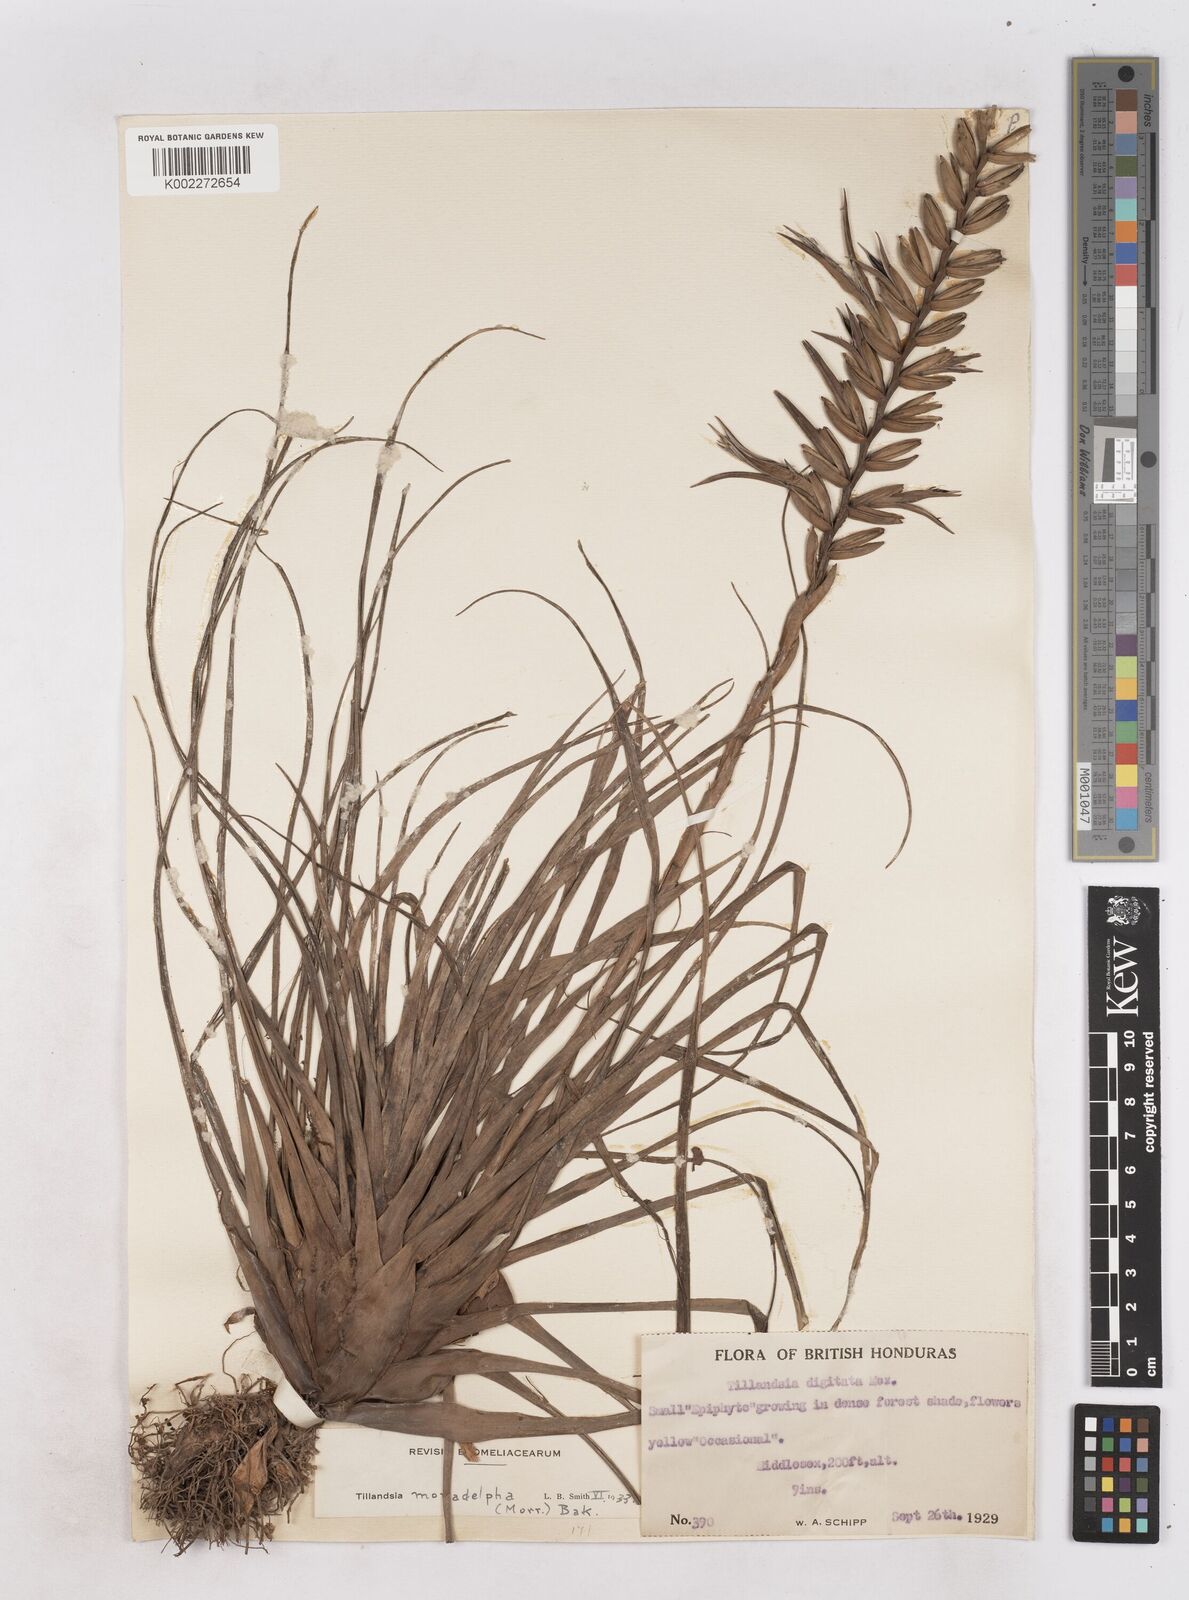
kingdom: Plantae
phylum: Tracheophyta
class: Liliopsida
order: Poales
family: Bromeliaceae
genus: Lemeltonia
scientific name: Lemeltonia monadelpha
